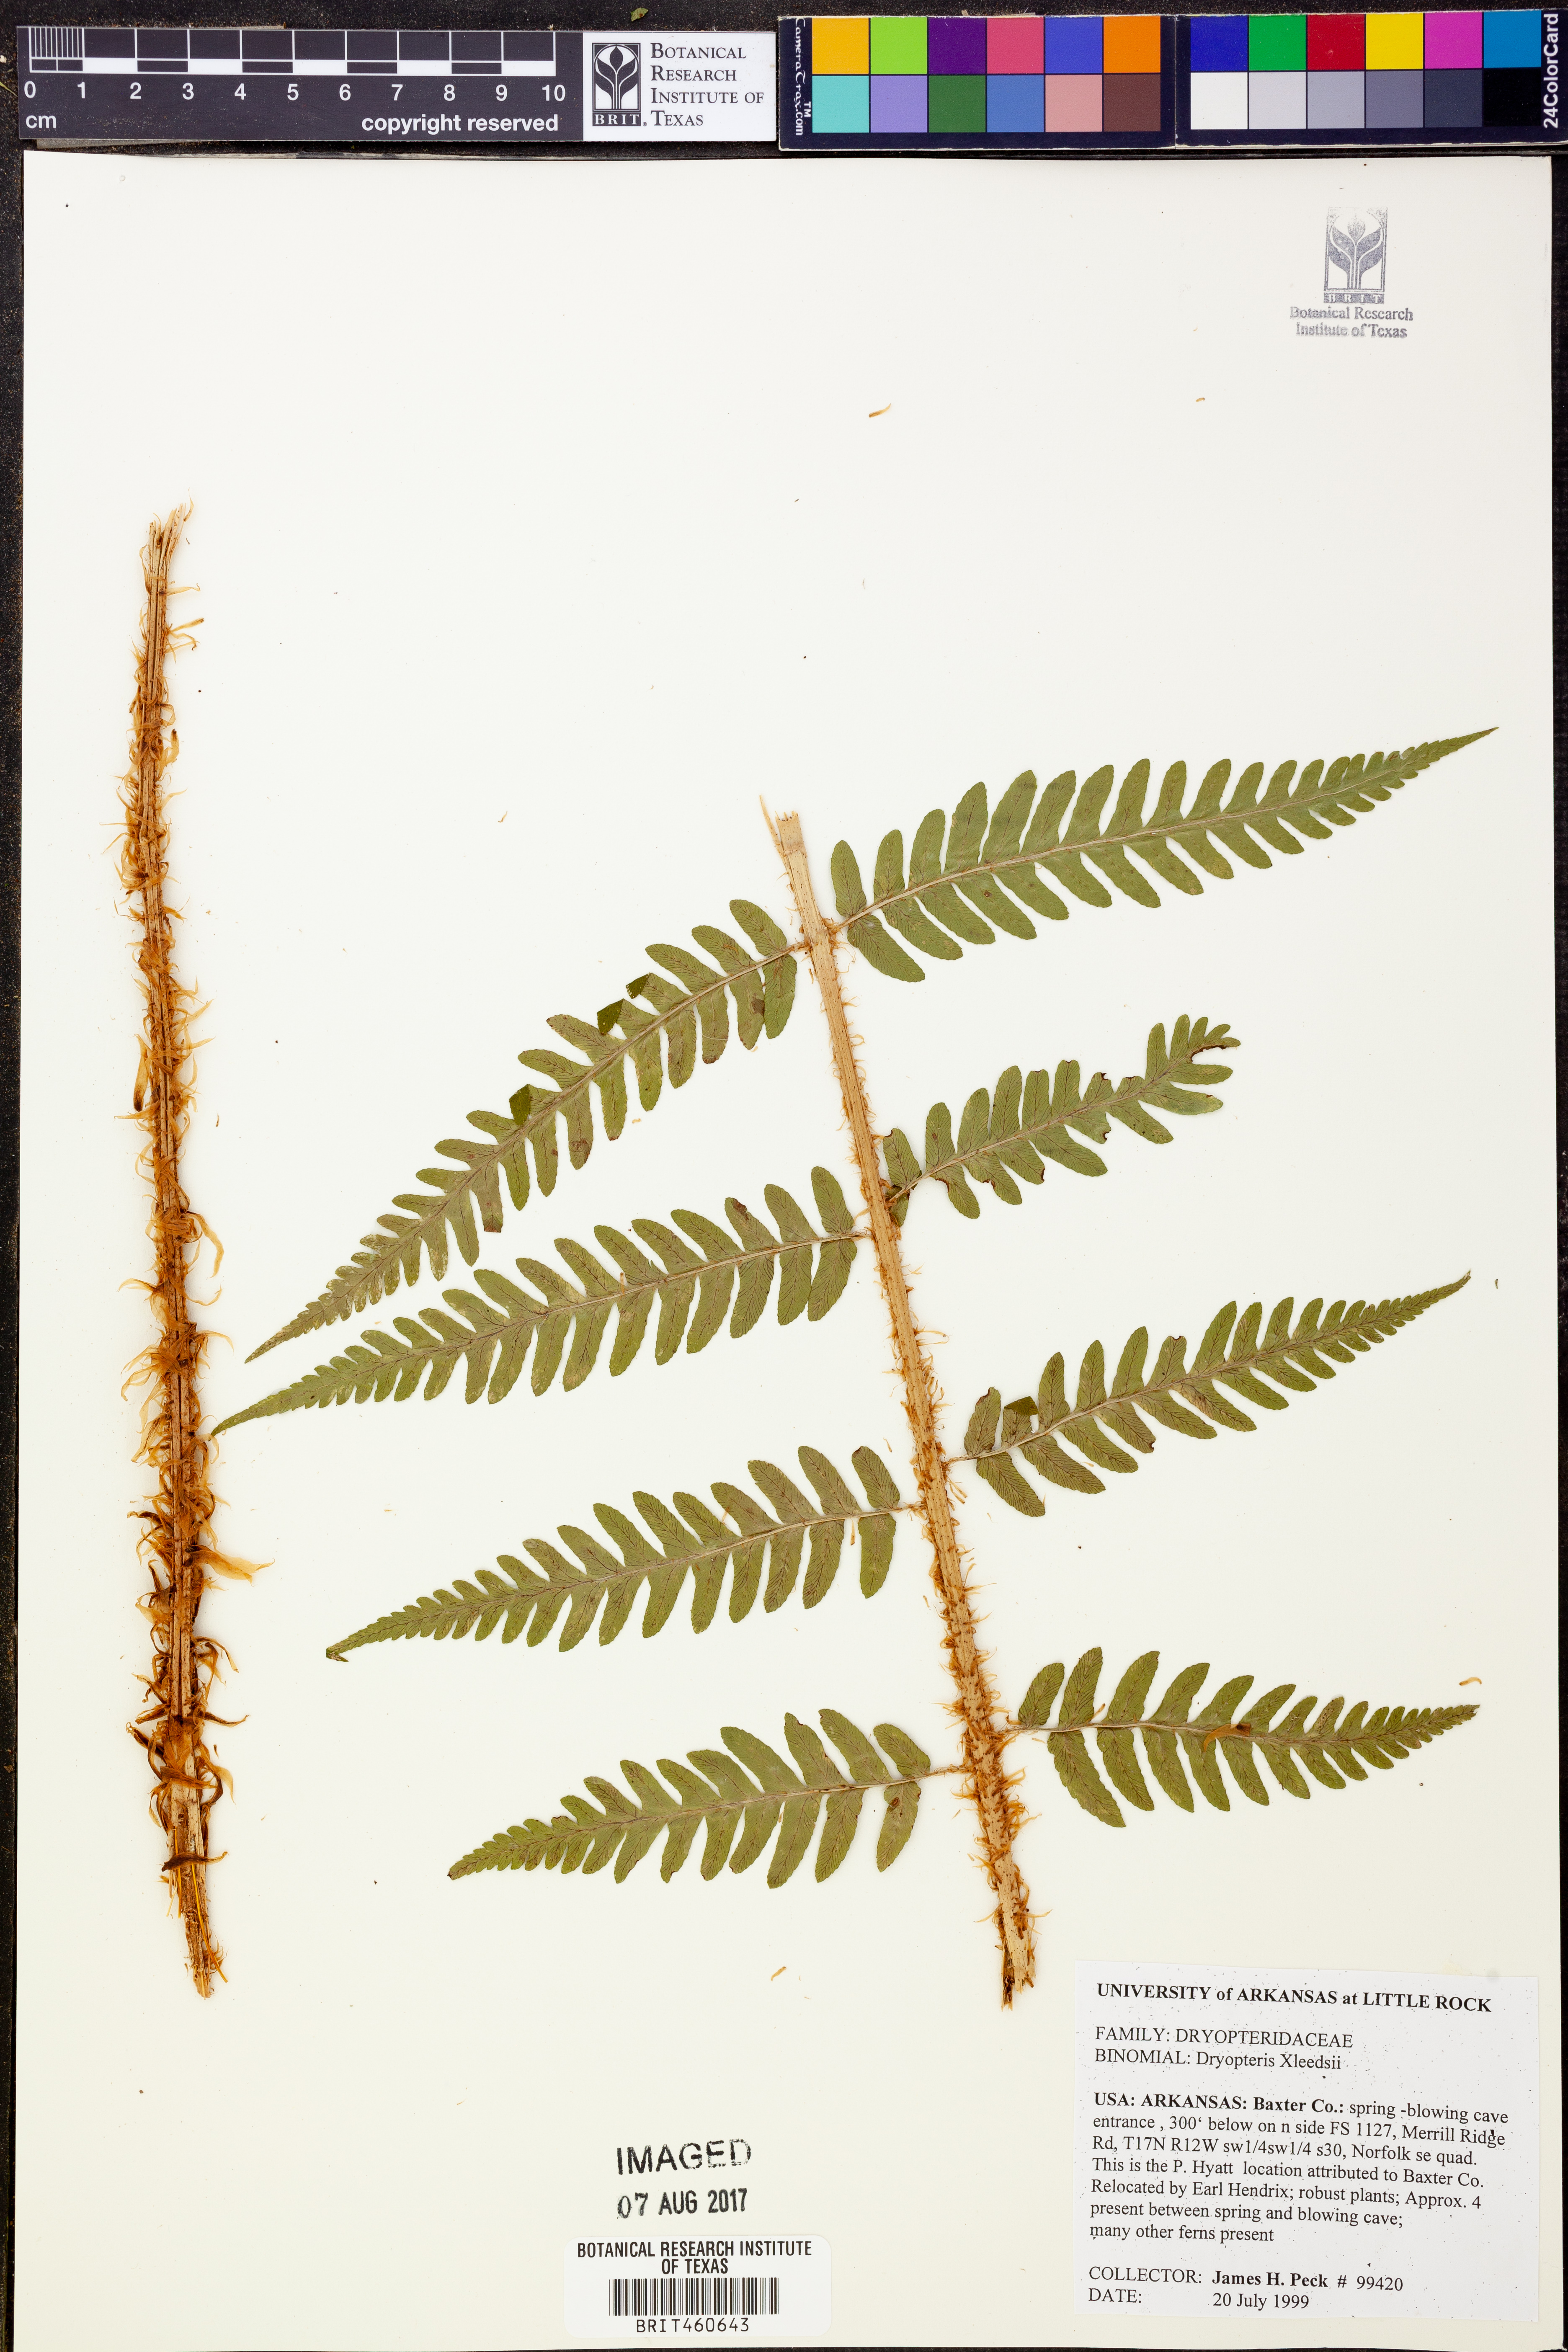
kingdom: Plantae
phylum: Tracheophyta
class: Polypodiopsida
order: Polypodiales
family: Dryopteridaceae
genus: Dryopteris
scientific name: Dryopteris
